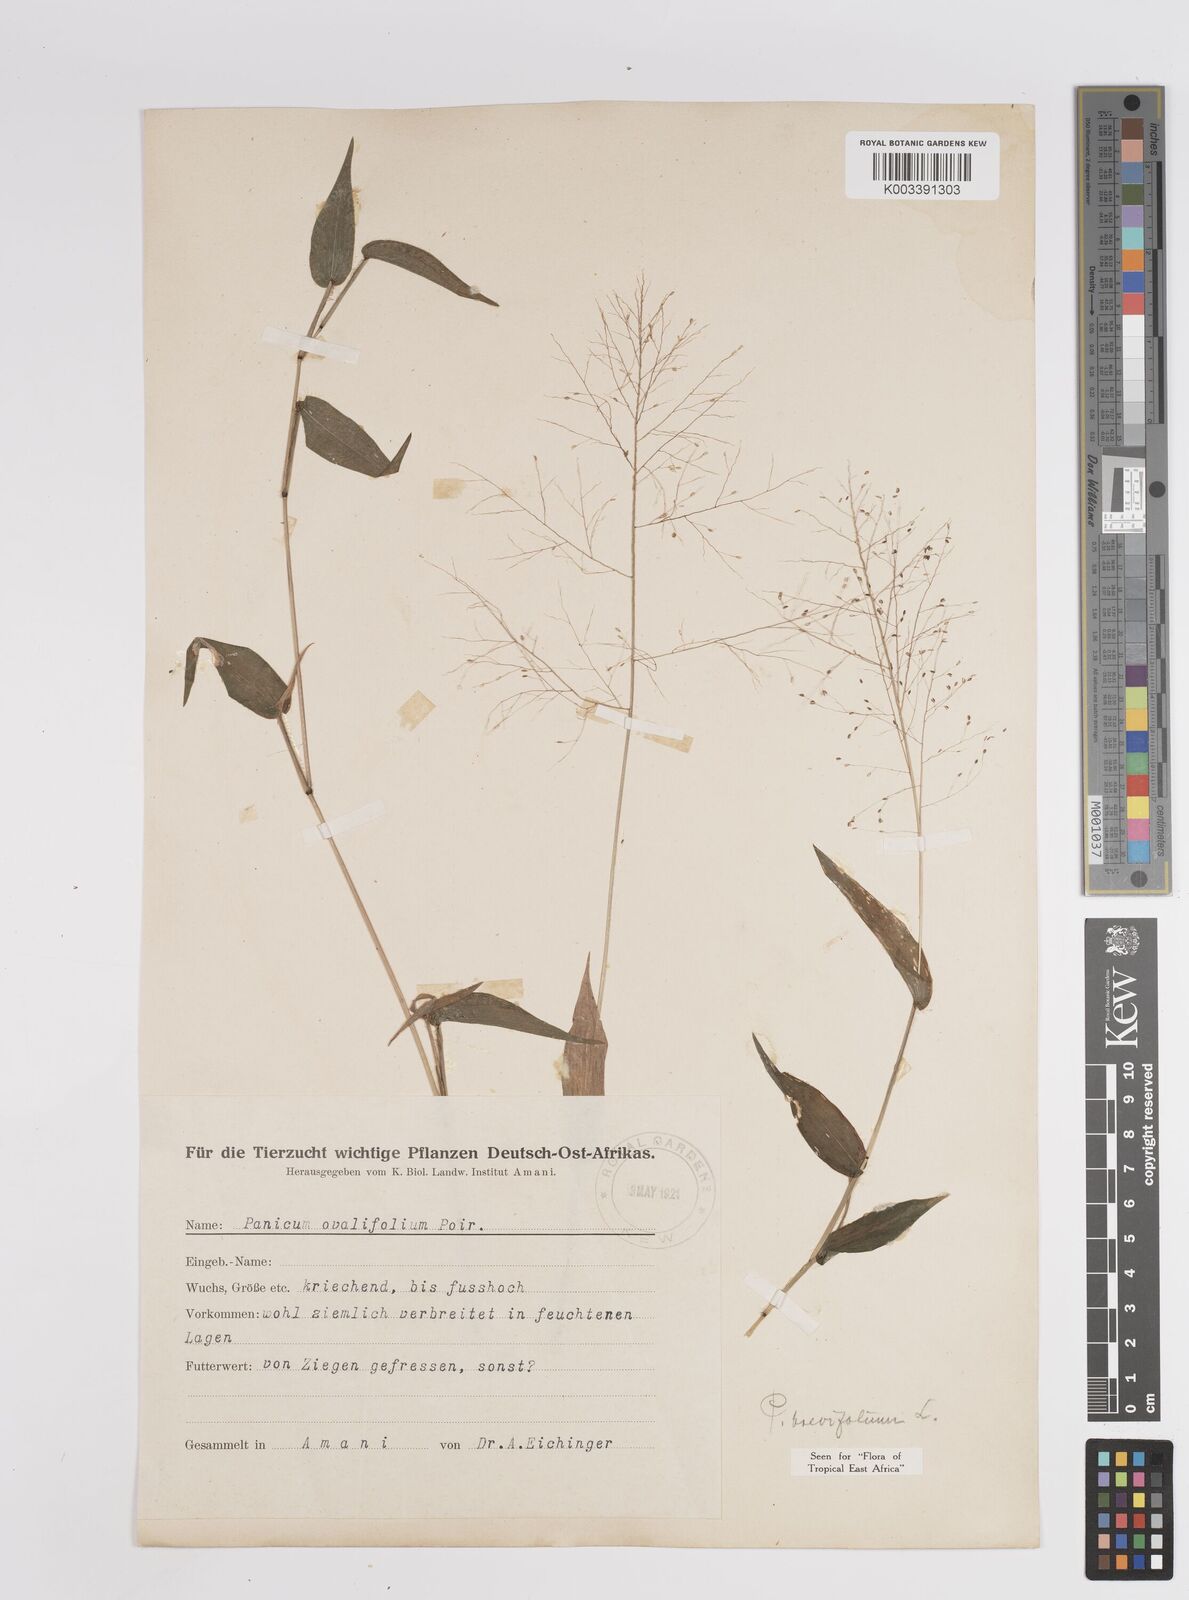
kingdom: Plantae
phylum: Tracheophyta
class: Liliopsida
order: Poales
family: Poaceae
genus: Panicum
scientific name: Panicum brevifolium
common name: Shortleaf panic grass
